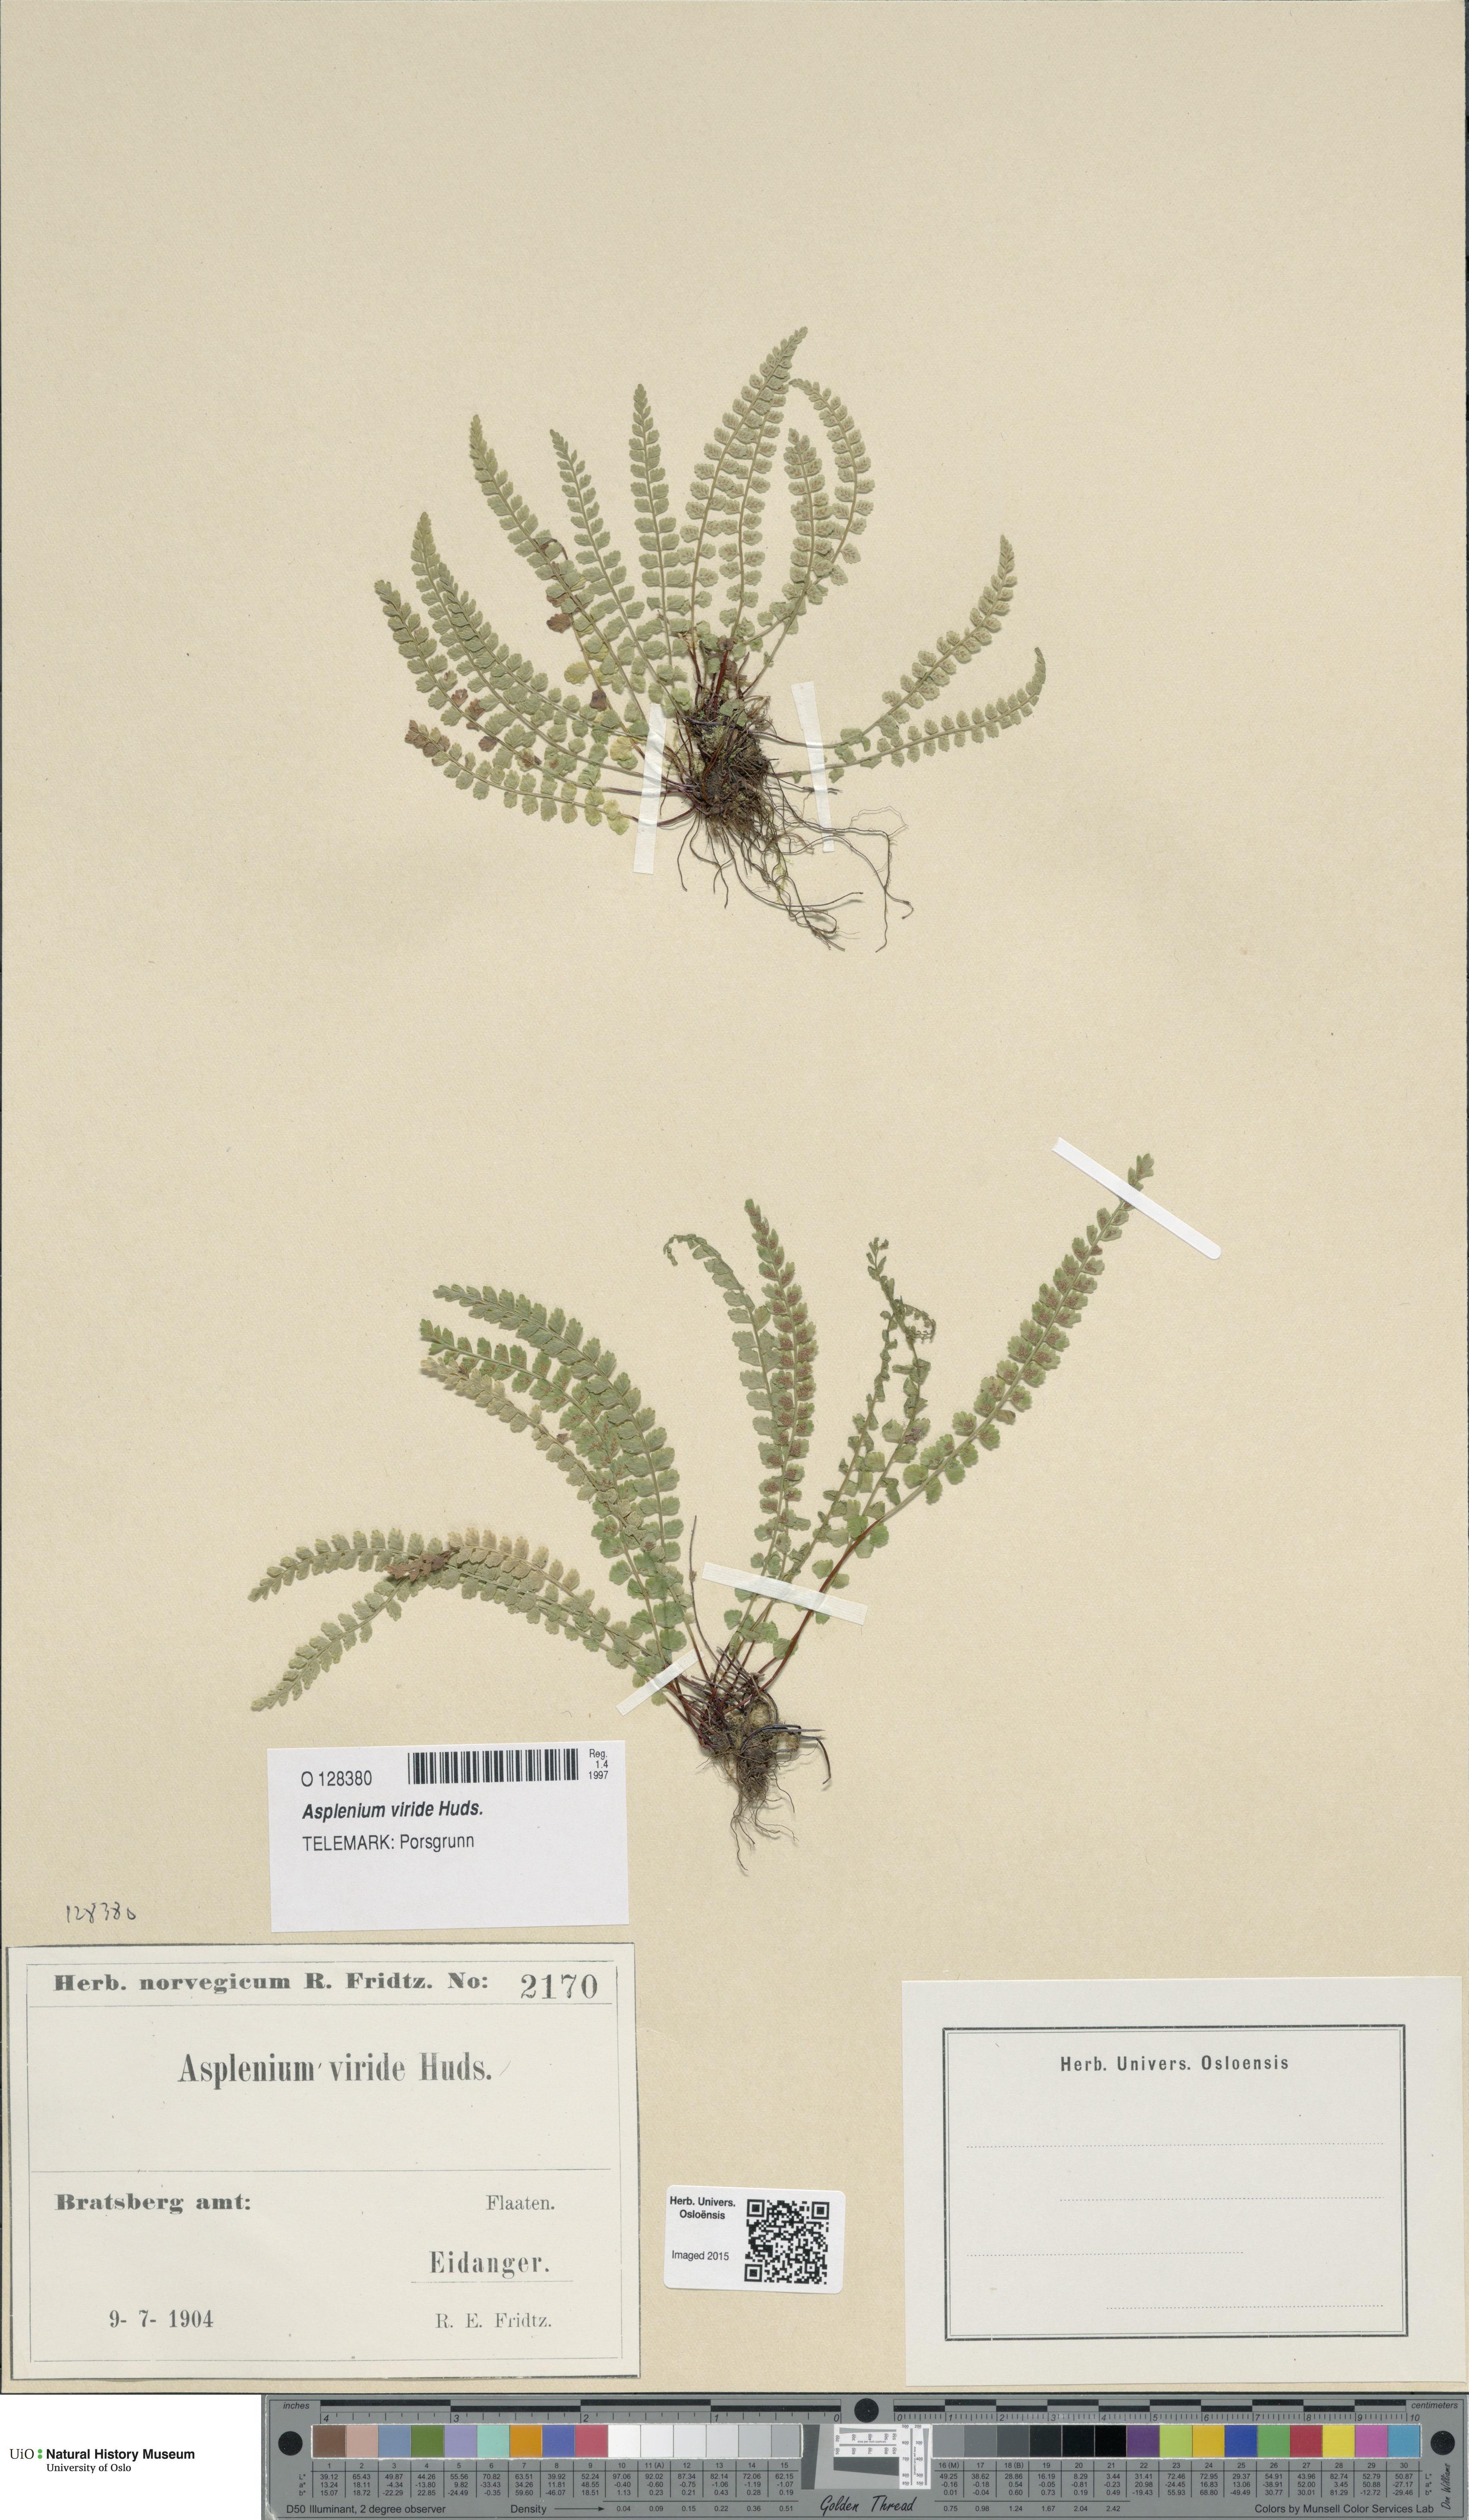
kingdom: Plantae
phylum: Tracheophyta
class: Polypodiopsida
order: Polypodiales
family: Aspleniaceae
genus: Asplenium
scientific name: Asplenium viride
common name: Green spleenwort
